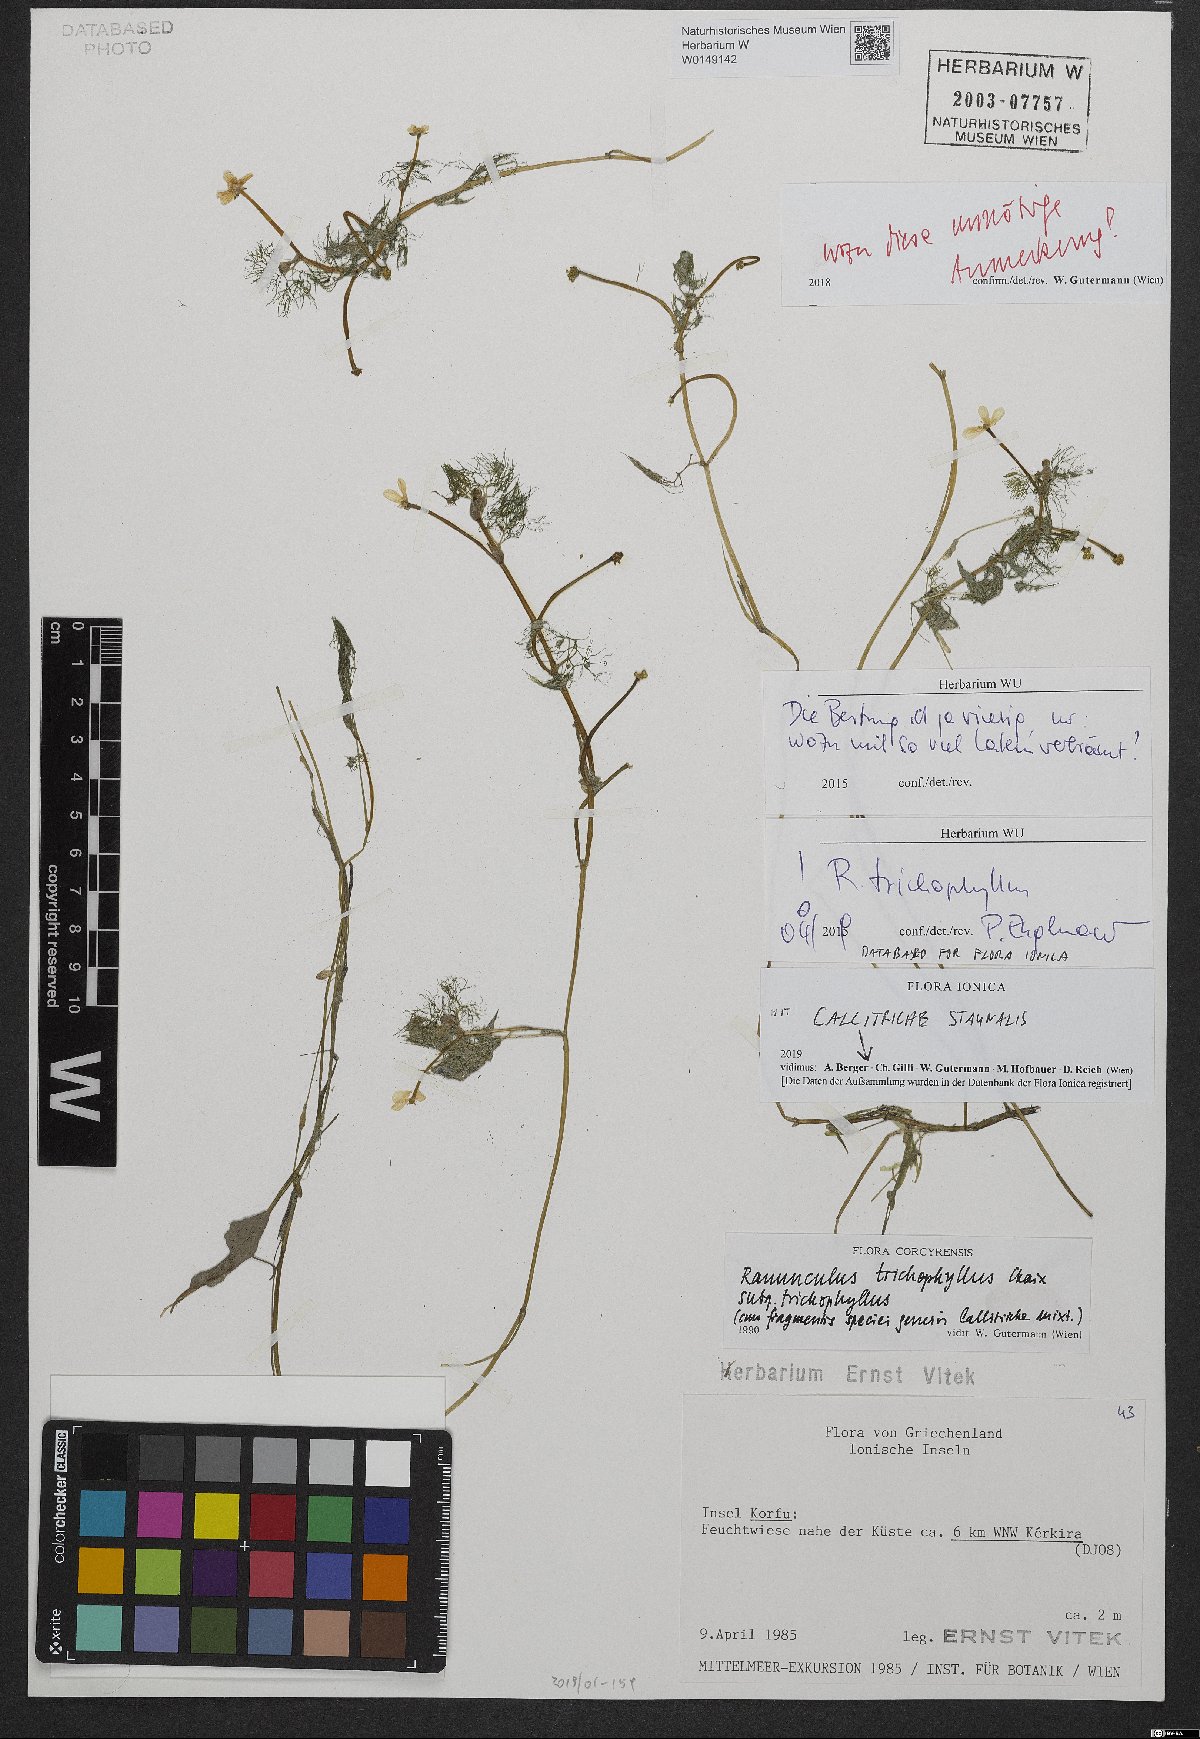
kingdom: Plantae
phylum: Tracheophyta
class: Magnoliopsida
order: Ranunculales
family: Ranunculaceae
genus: Ranunculus
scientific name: Ranunculus trichophyllus
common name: Thread-leaved water-crowfoot
